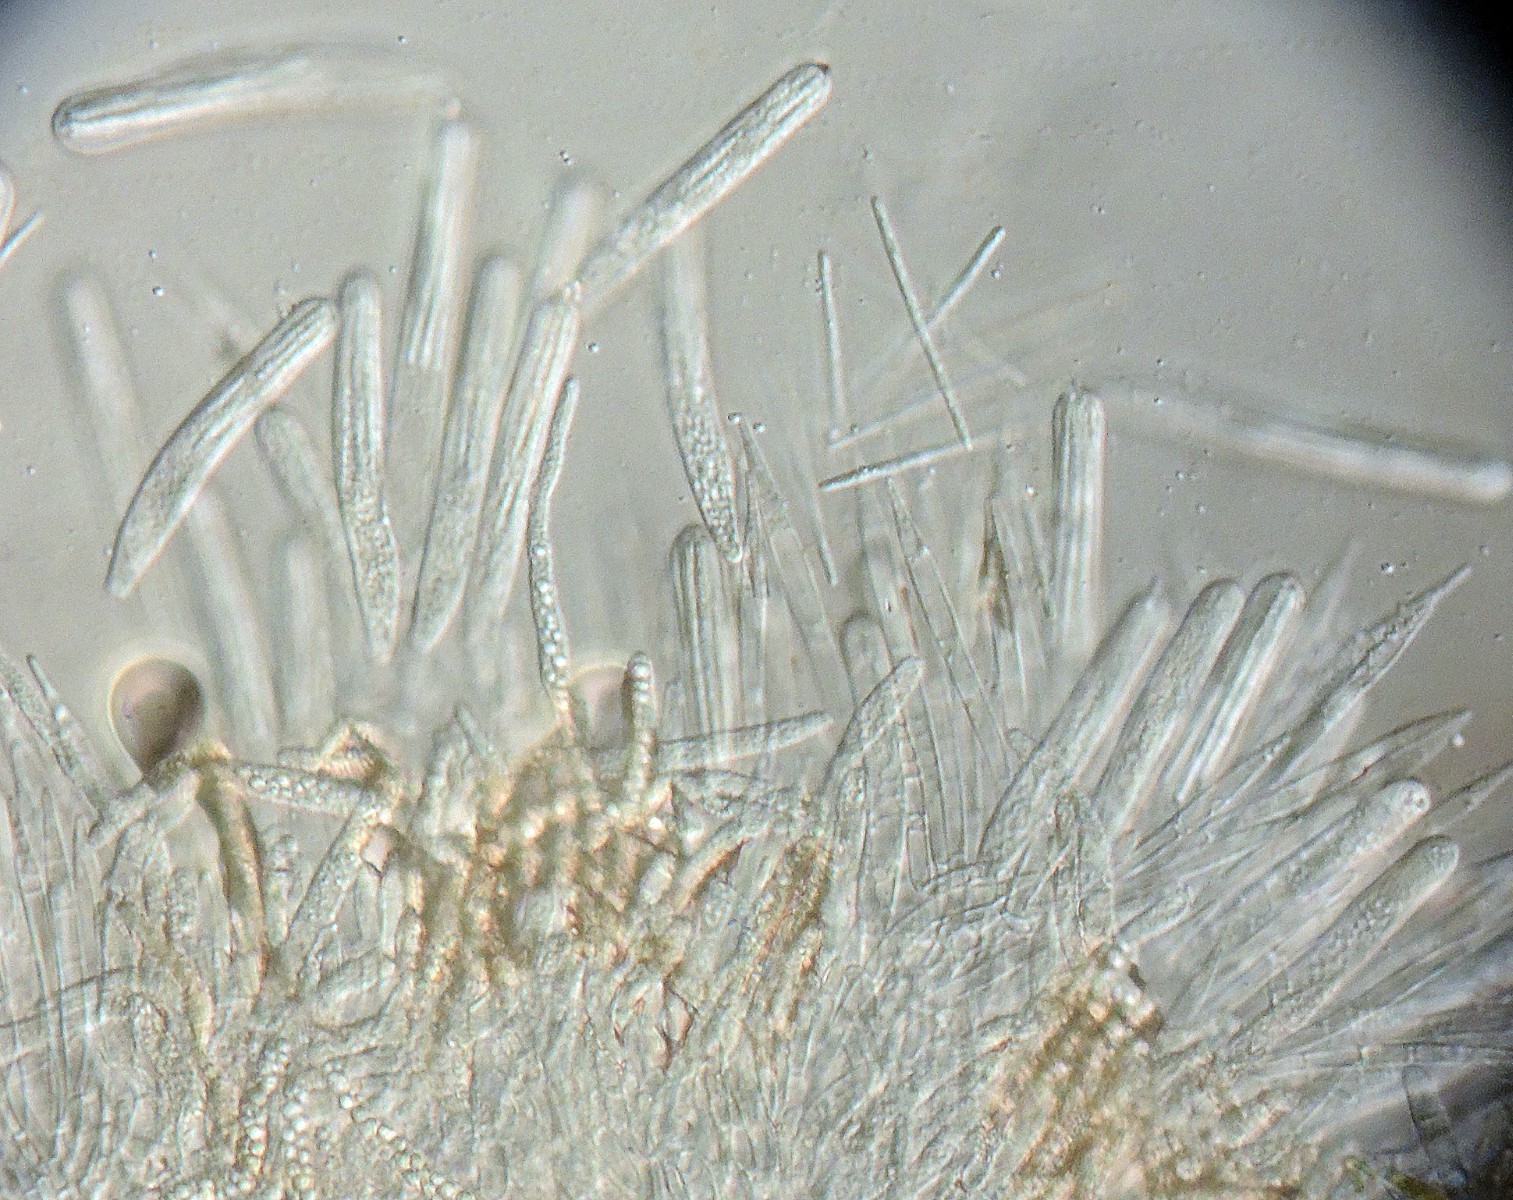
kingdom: Fungi
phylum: Ascomycota
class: Leotiomycetes
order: Helotiales
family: Lachnaceae
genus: Lachnum
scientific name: Lachnum apalum
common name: siv-frynseskive
